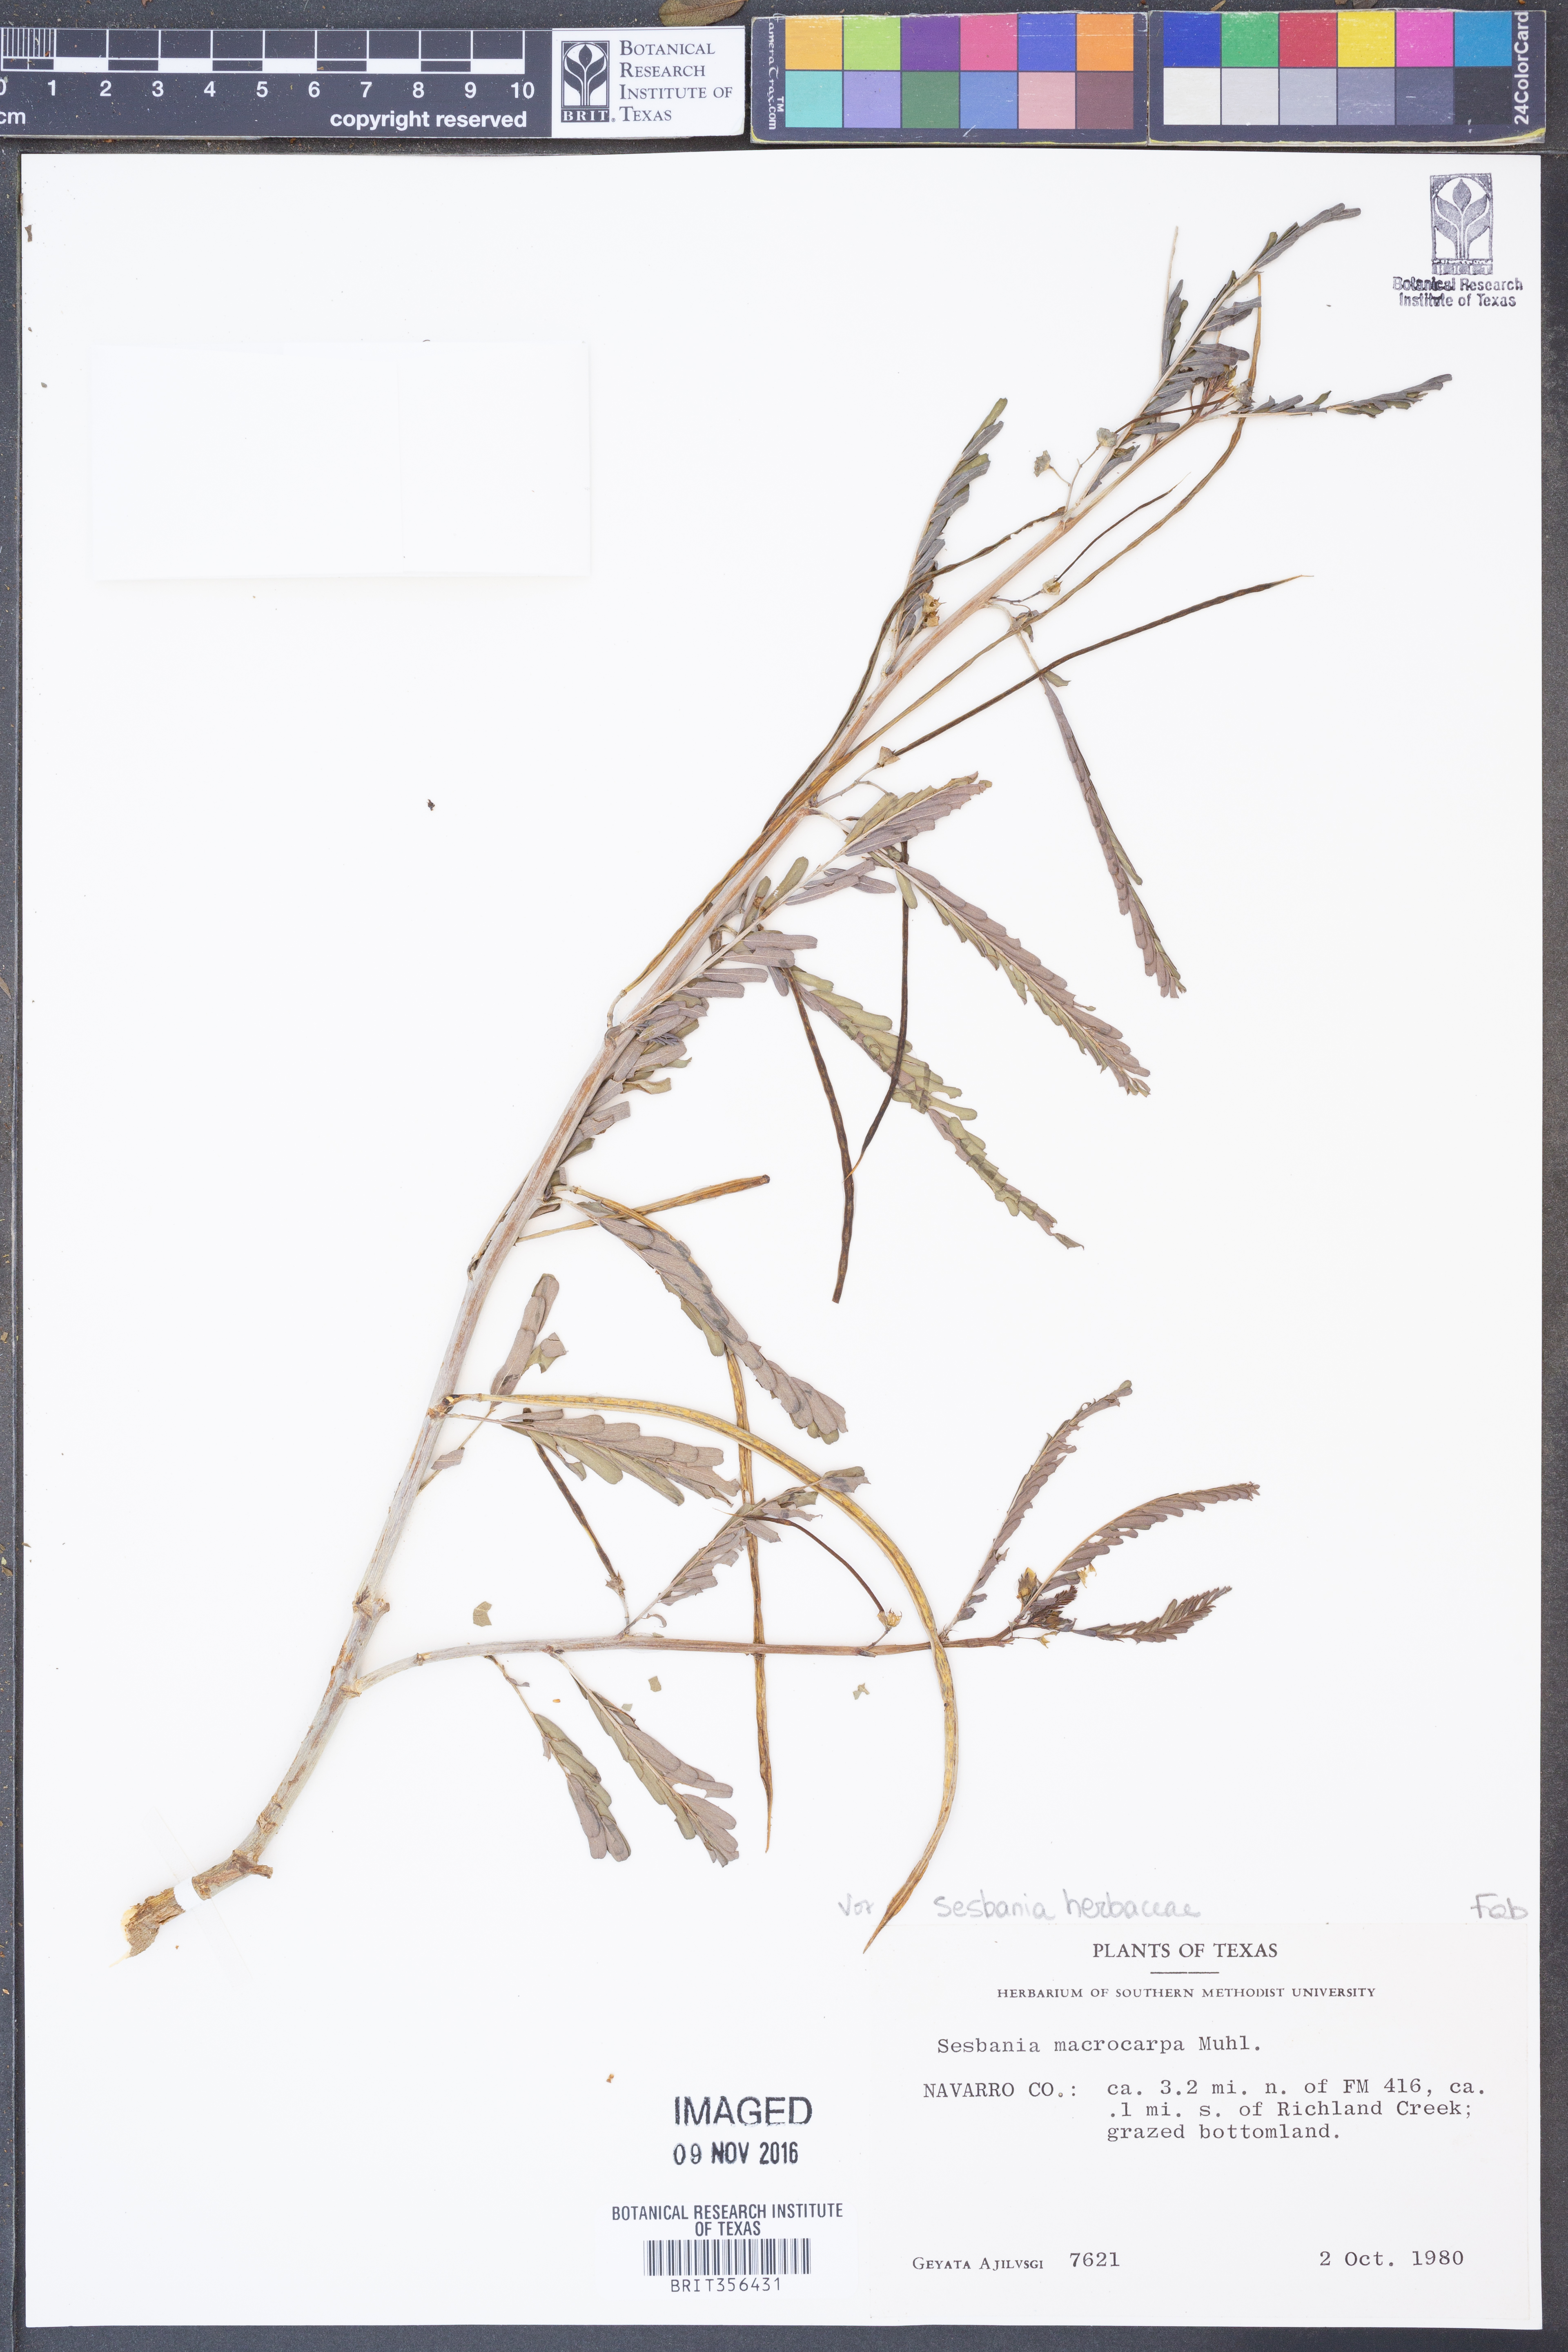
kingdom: Plantae
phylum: Tracheophyta
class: Magnoliopsida
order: Fabales
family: Fabaceae
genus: Sesbania
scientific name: Sesbania herbacea
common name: Bigpod sesbania
